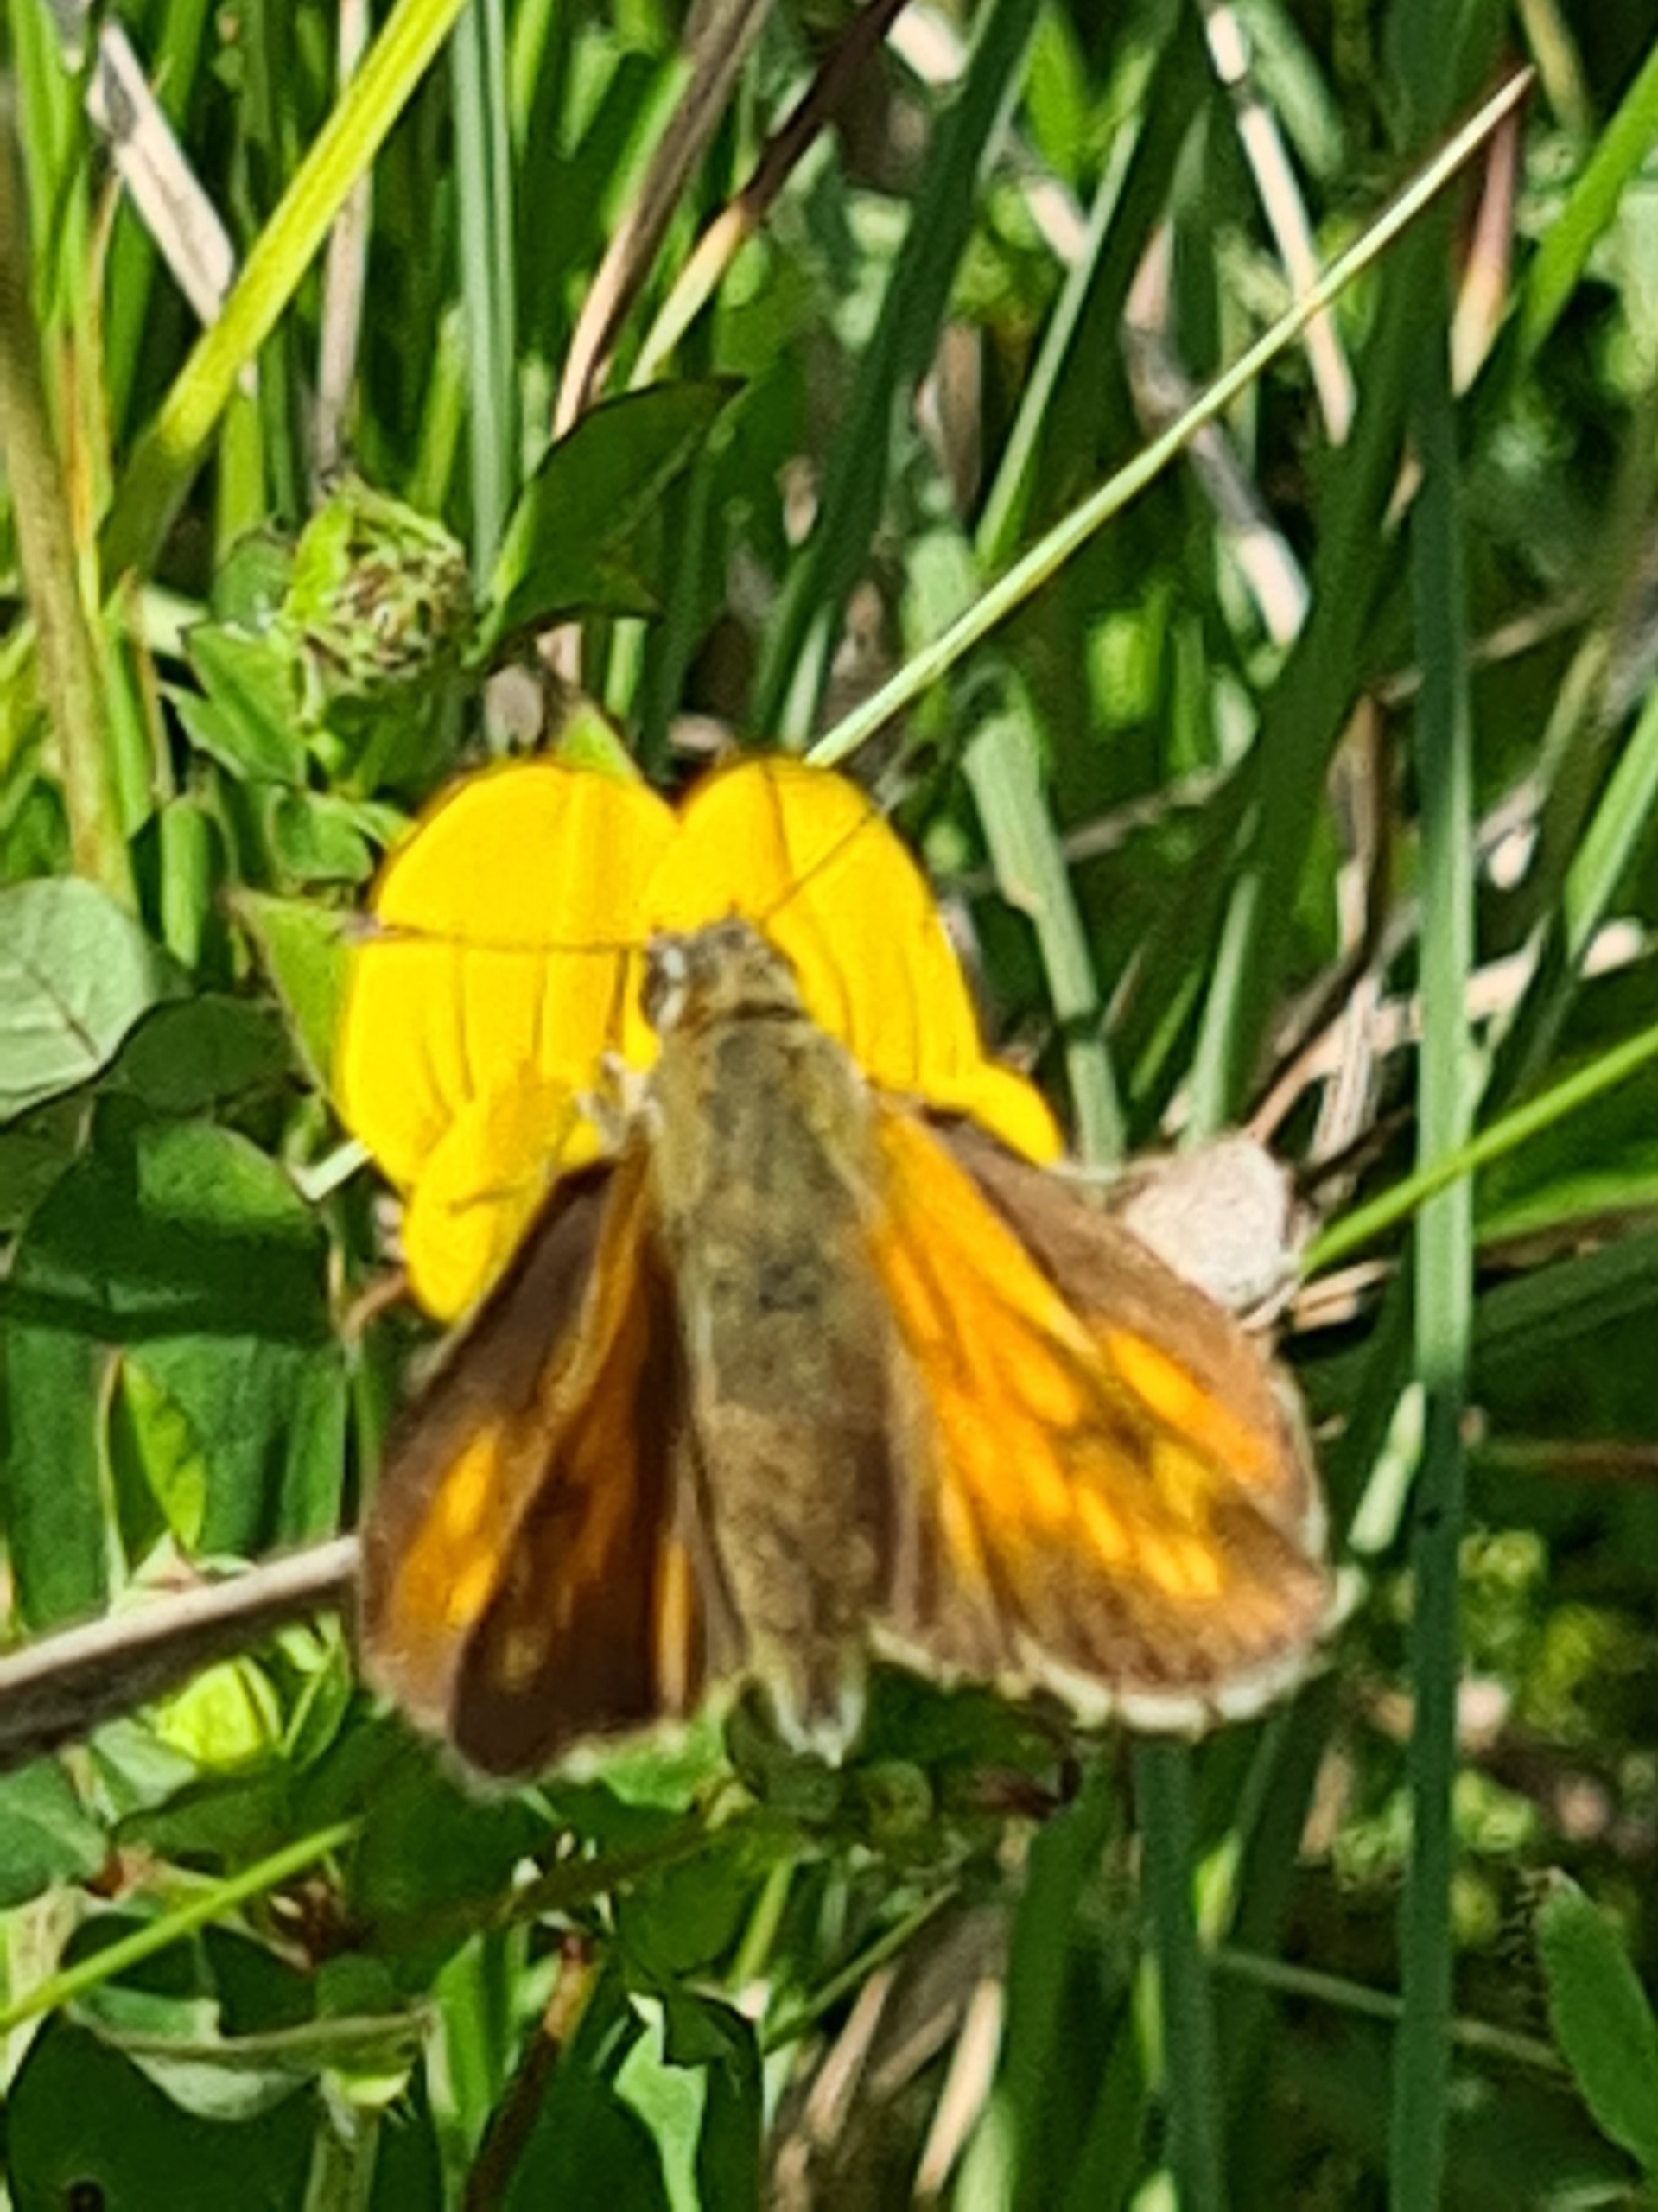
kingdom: Animalia
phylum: Arthropoda
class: Insecta
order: Lepidoptera
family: Hesperiidae
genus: Ochlodes
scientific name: Ochlodes venata
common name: Stor bredpande
